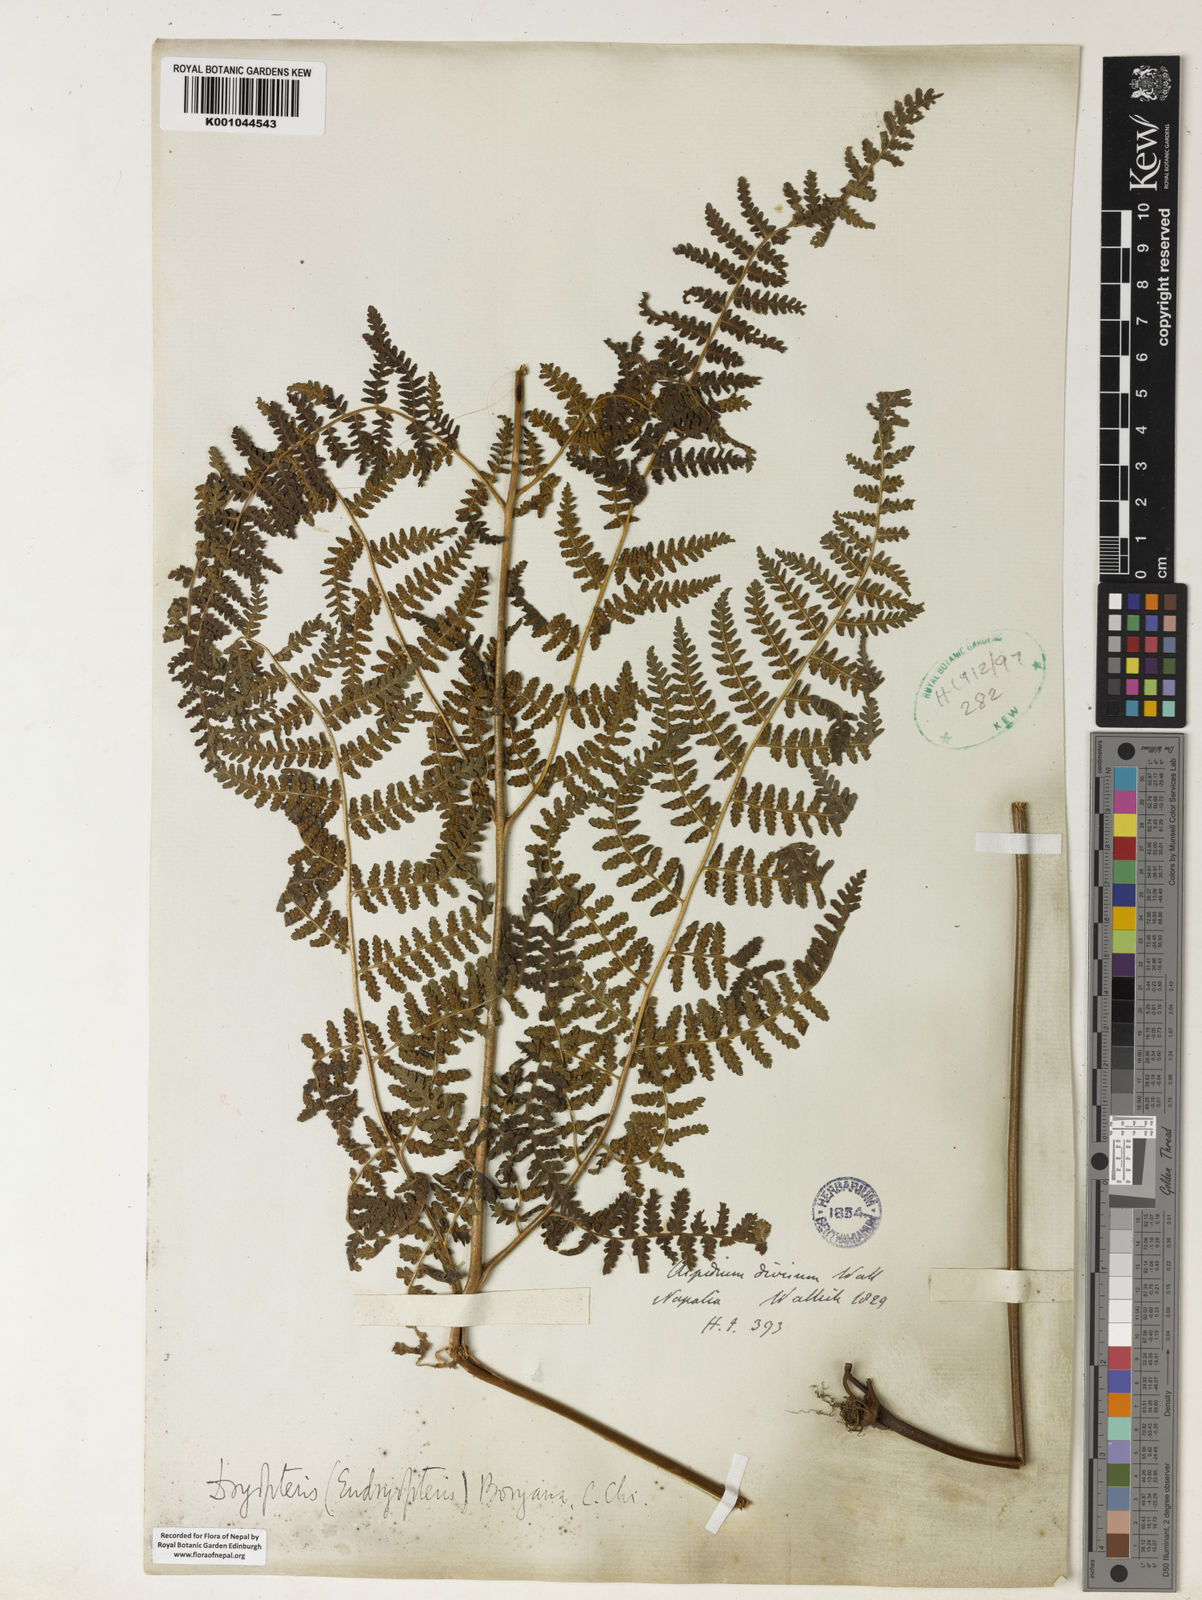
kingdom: Plantae
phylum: Tracheophyta
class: Polypodiopsida
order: Polypodiales
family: Dennstaedtiaceae
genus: Hypolepis
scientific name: Hypolepis polypodioides
